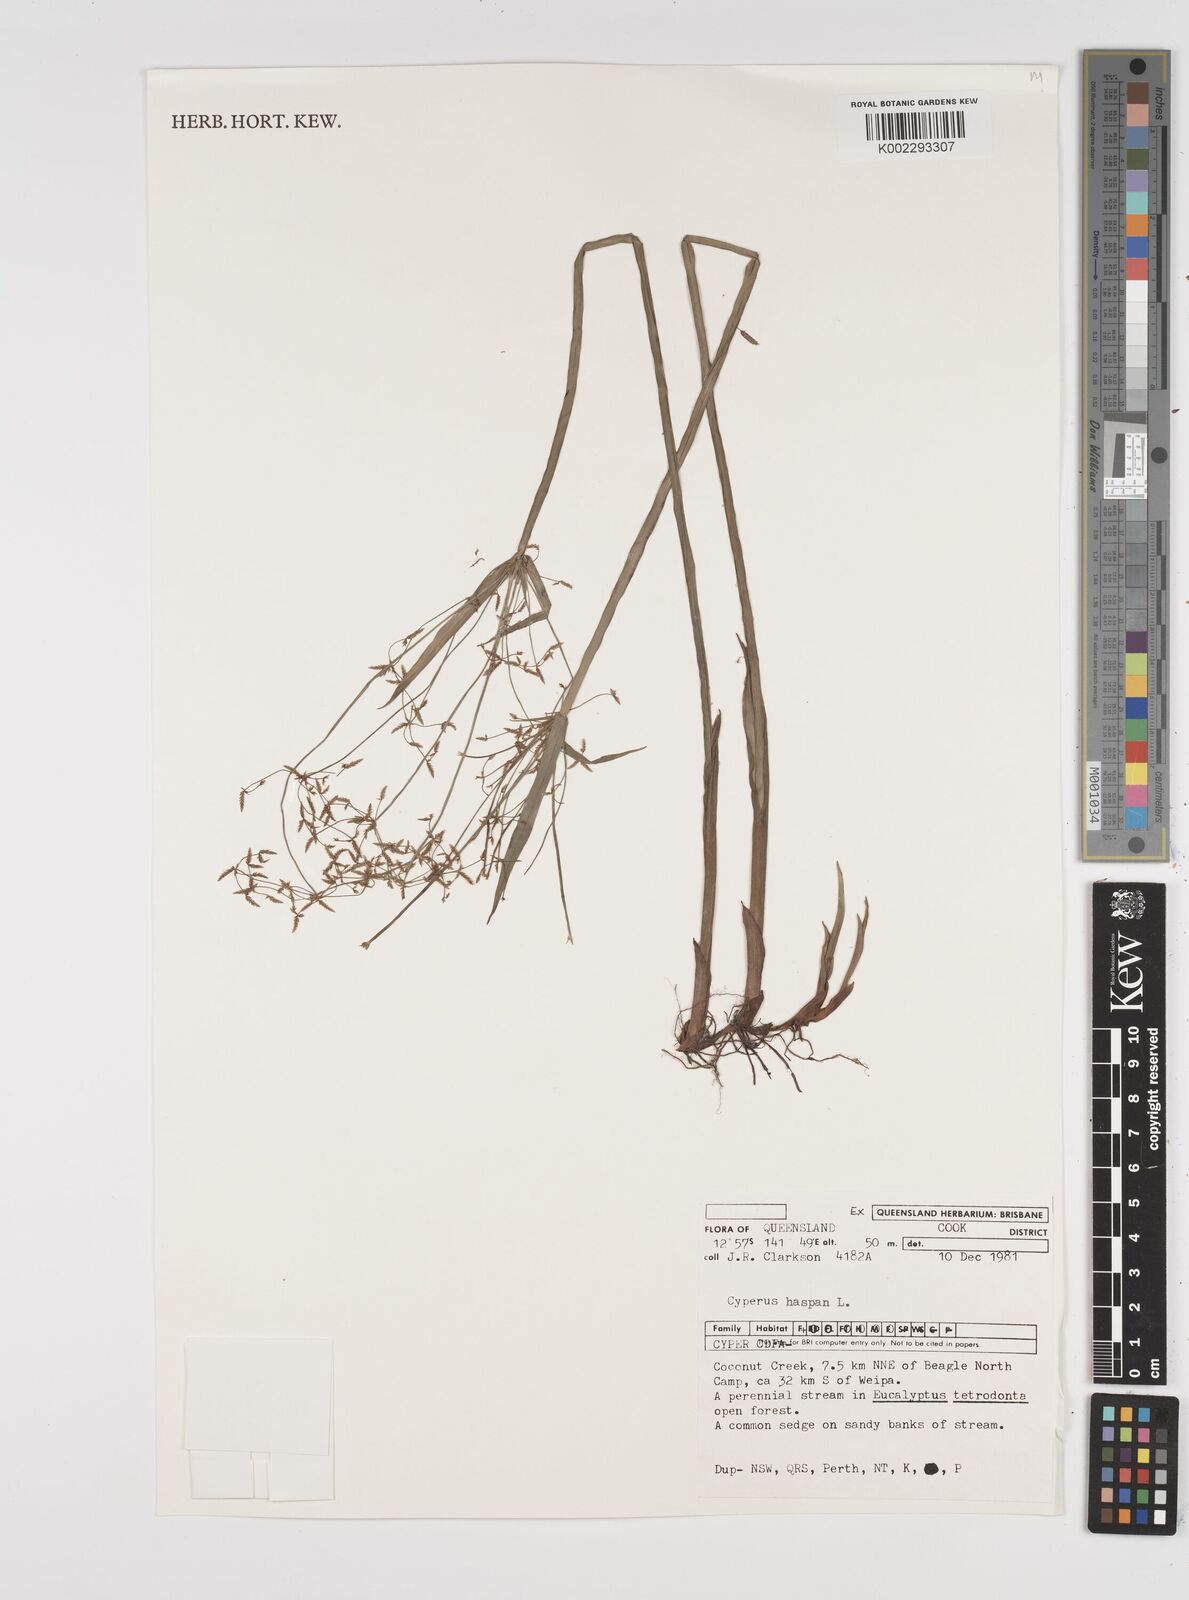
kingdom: Plantae
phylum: Tracheophyta
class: Liliopsida
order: Poales
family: Cyperaceae
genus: Cyperus
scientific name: Cyperus haspan
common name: Haspan flatsedge
